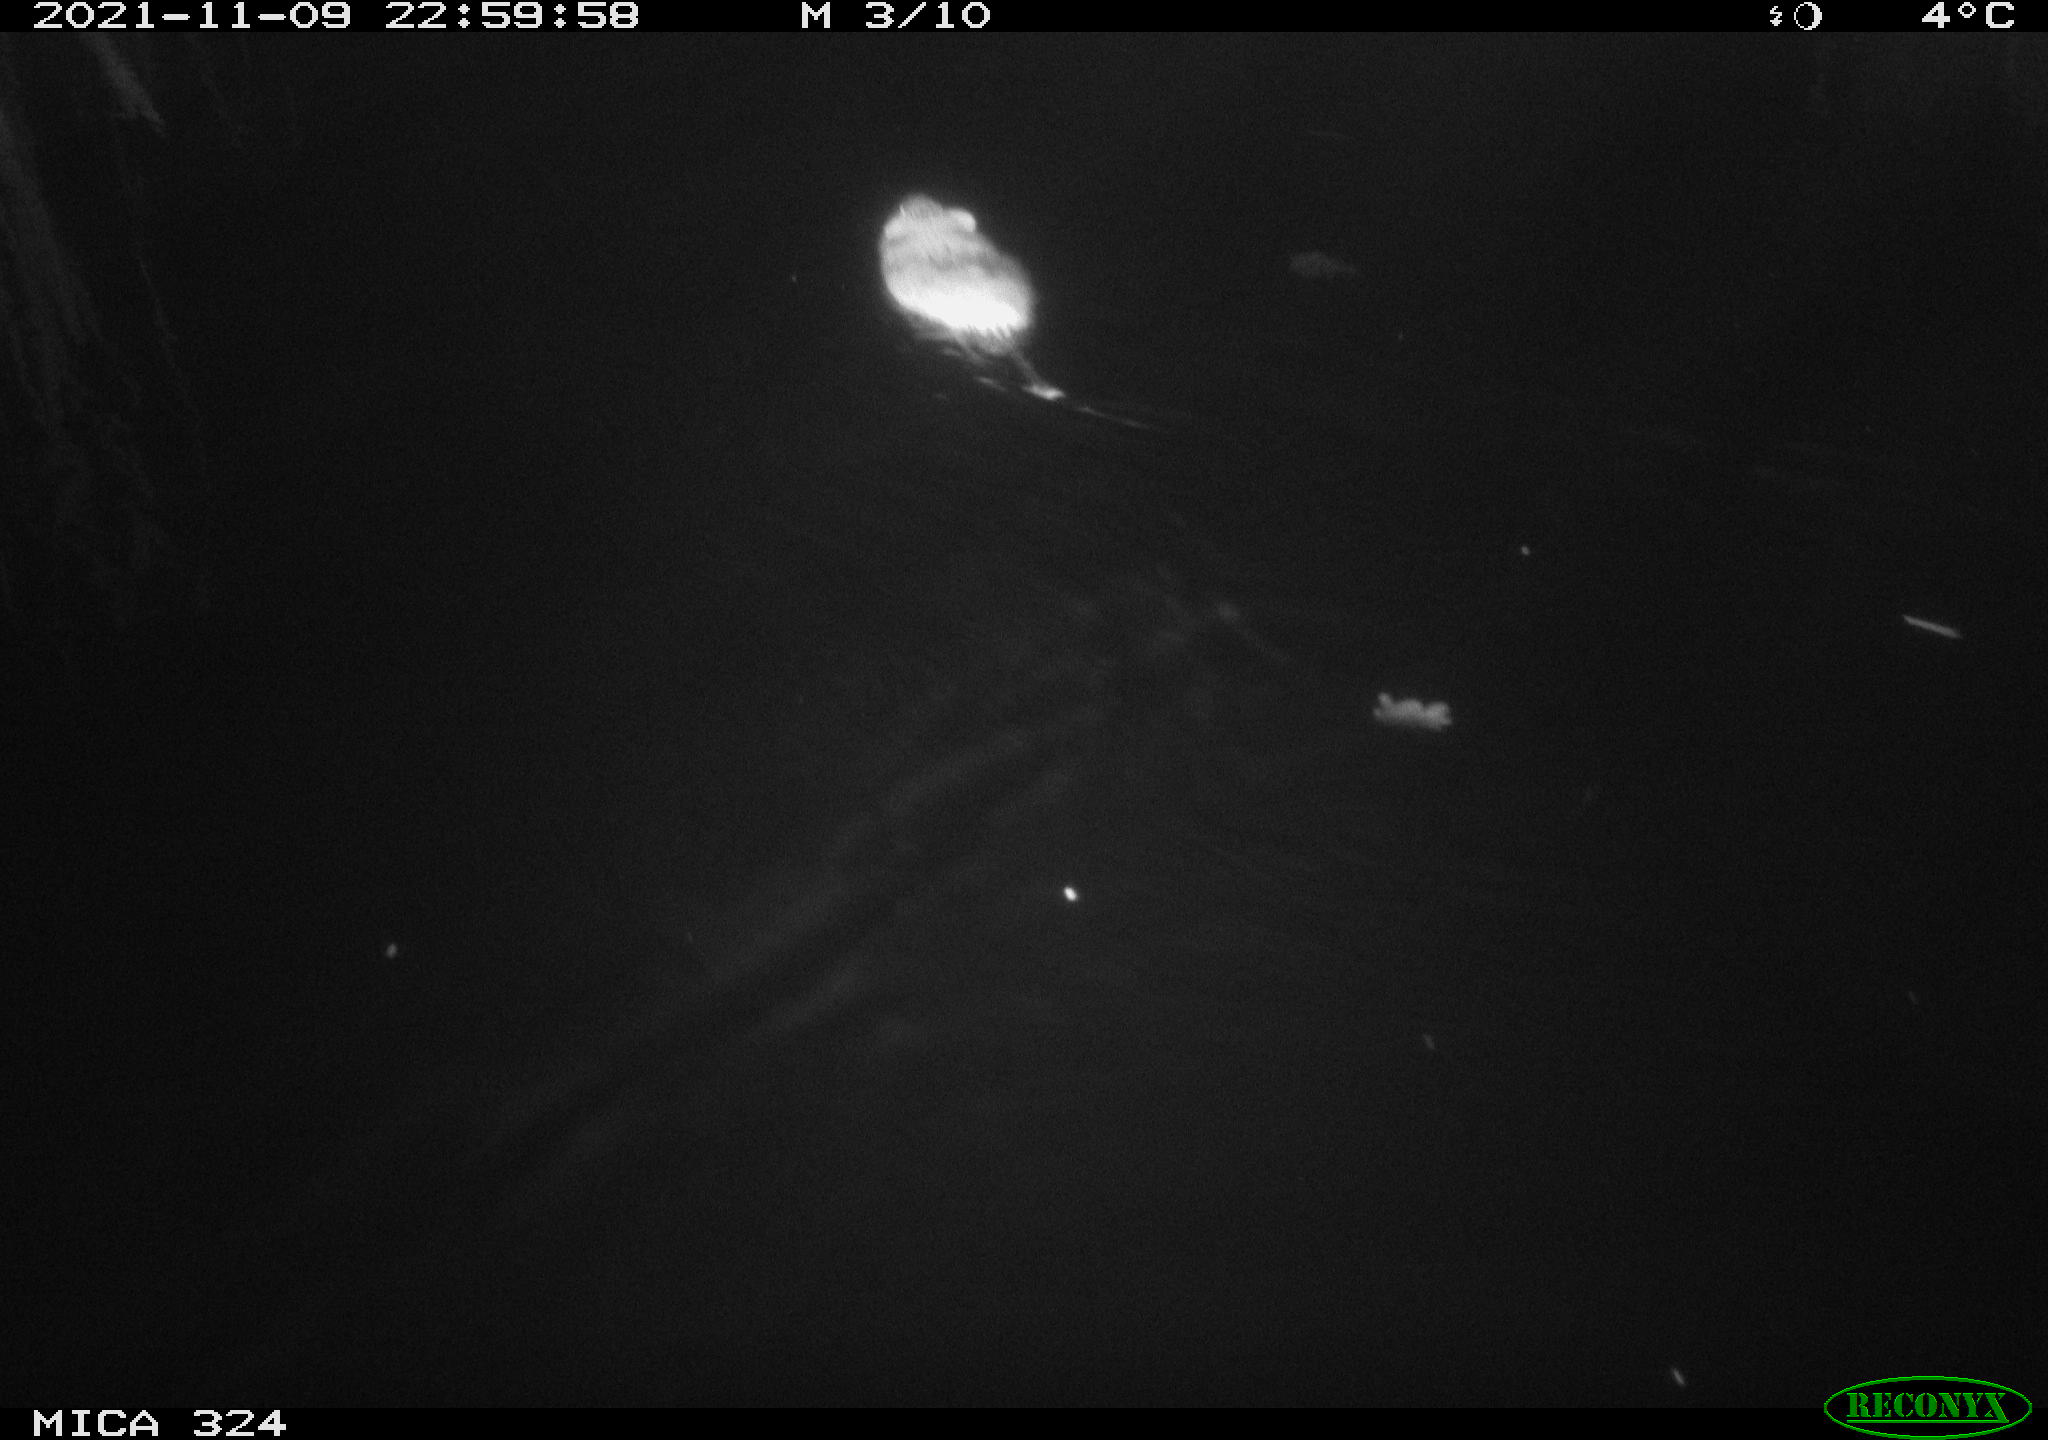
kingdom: Animalia
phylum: Chordata
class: Mammalia
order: Rodentia
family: Cricetidae
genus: Ondatra
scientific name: Ondatra zibethicus
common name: Muskrat
